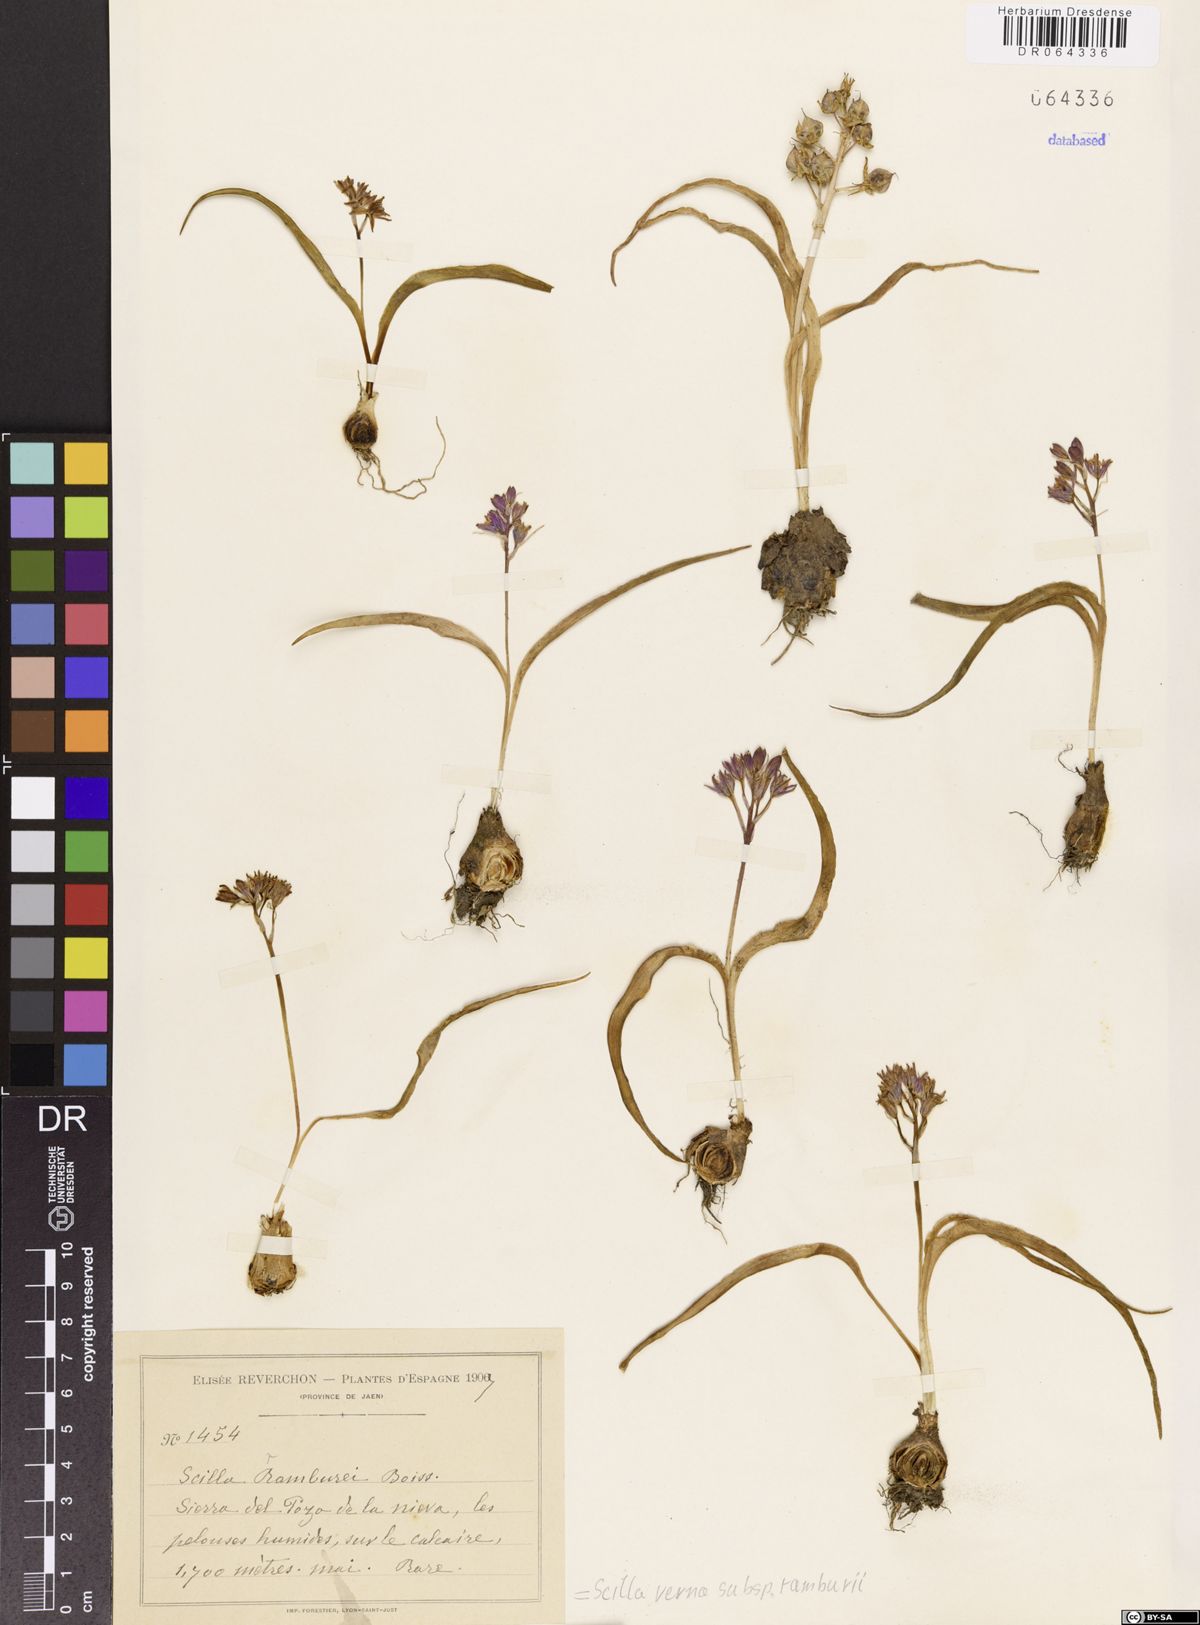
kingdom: Plantae
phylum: Tracheophyta
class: Liliopsida
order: Asparagales
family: Asparagaceae
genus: Scilla
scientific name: Scilla verna
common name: Spring squill
